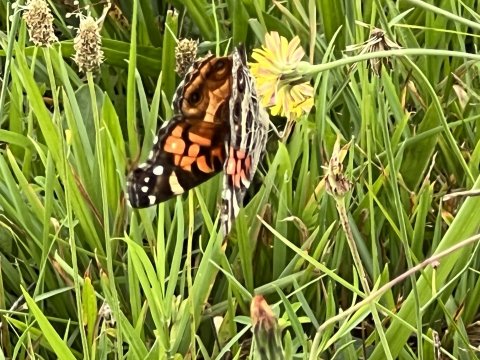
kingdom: Animalia
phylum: Arthropoda
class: Insecta
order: Lepidoptera
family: Nymphalidae
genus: Vanessa
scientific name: Vanessa virginiensis
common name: American Lady
